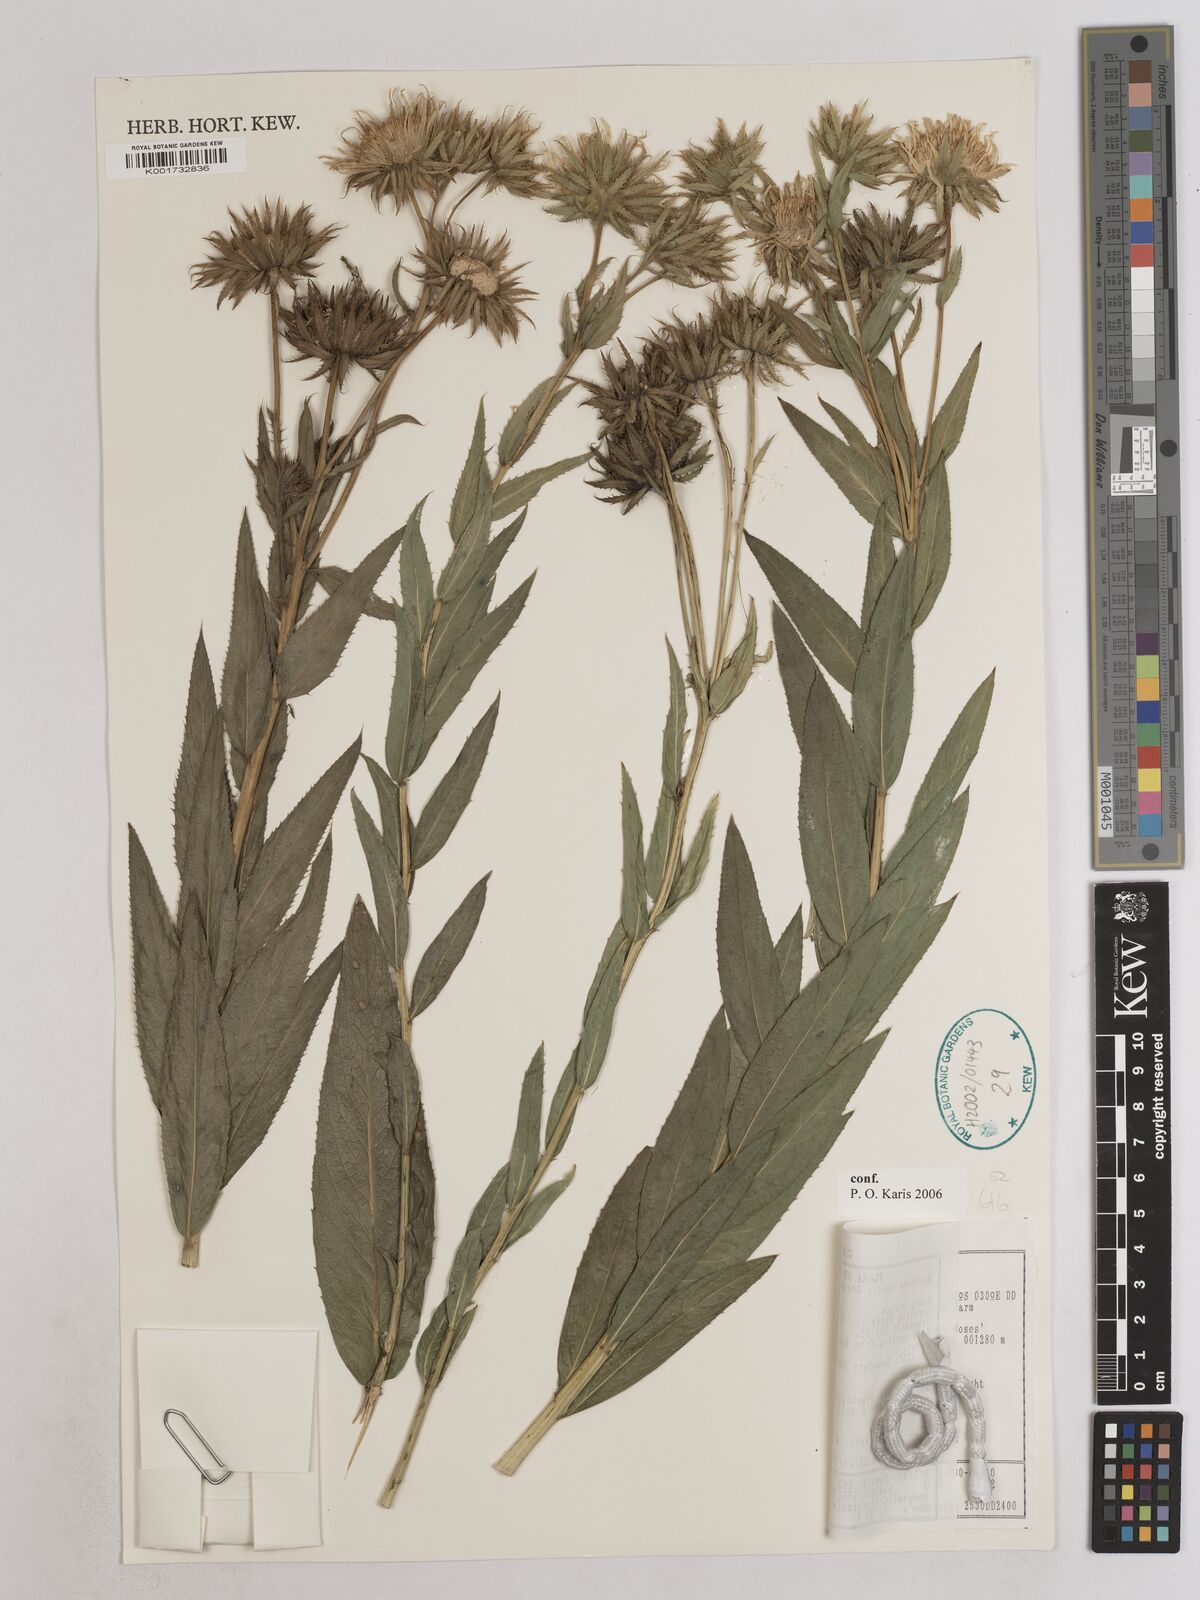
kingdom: Plantae
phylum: Tracheophyta
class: Magnoliopsida
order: Asterales
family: Asteraceae
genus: Berkheya
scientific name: Berkheya coddii
